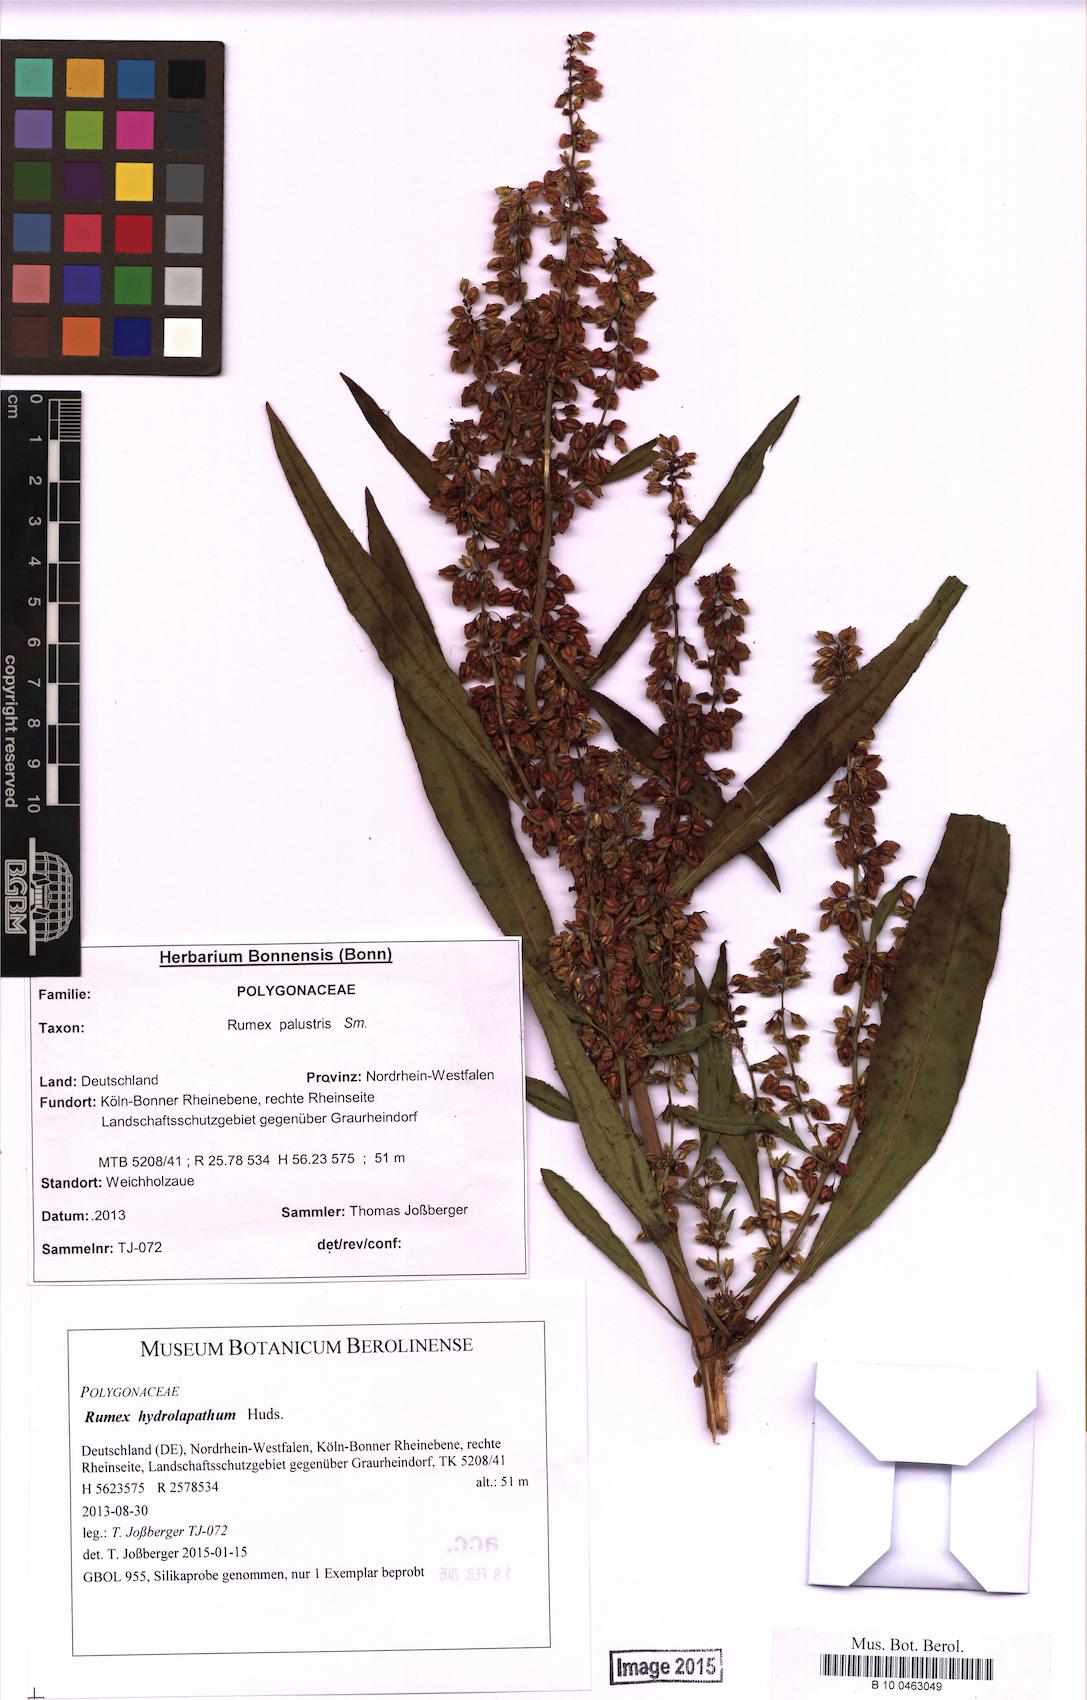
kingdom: Plantae
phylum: Tracheophyta
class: Magnoliopsida
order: Caryophyllales
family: Polygonaceae
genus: Rumex
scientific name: Rumex hydrolapathum
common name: Water dock
